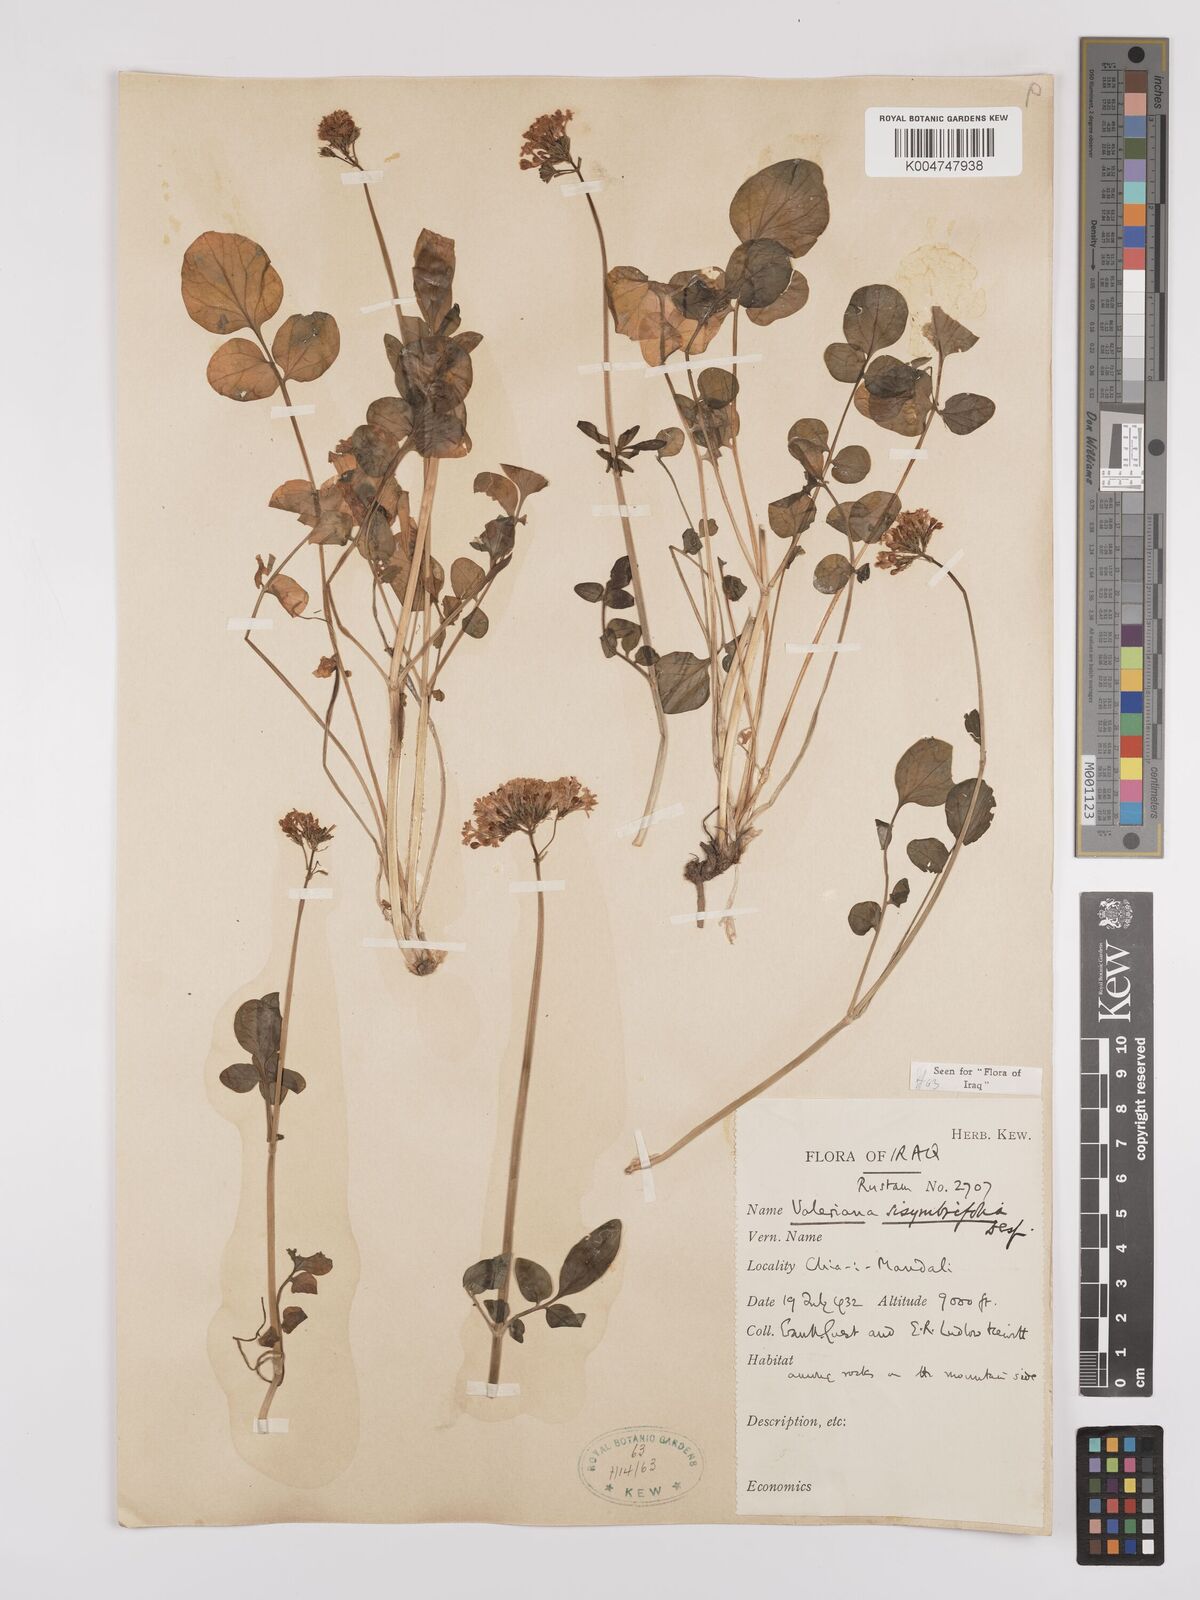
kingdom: Plantae
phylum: Tracheophyta
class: Magnoliopsida
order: Dipsacales
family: Caprifoliaceae
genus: Valeriana
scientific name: Valeriana
